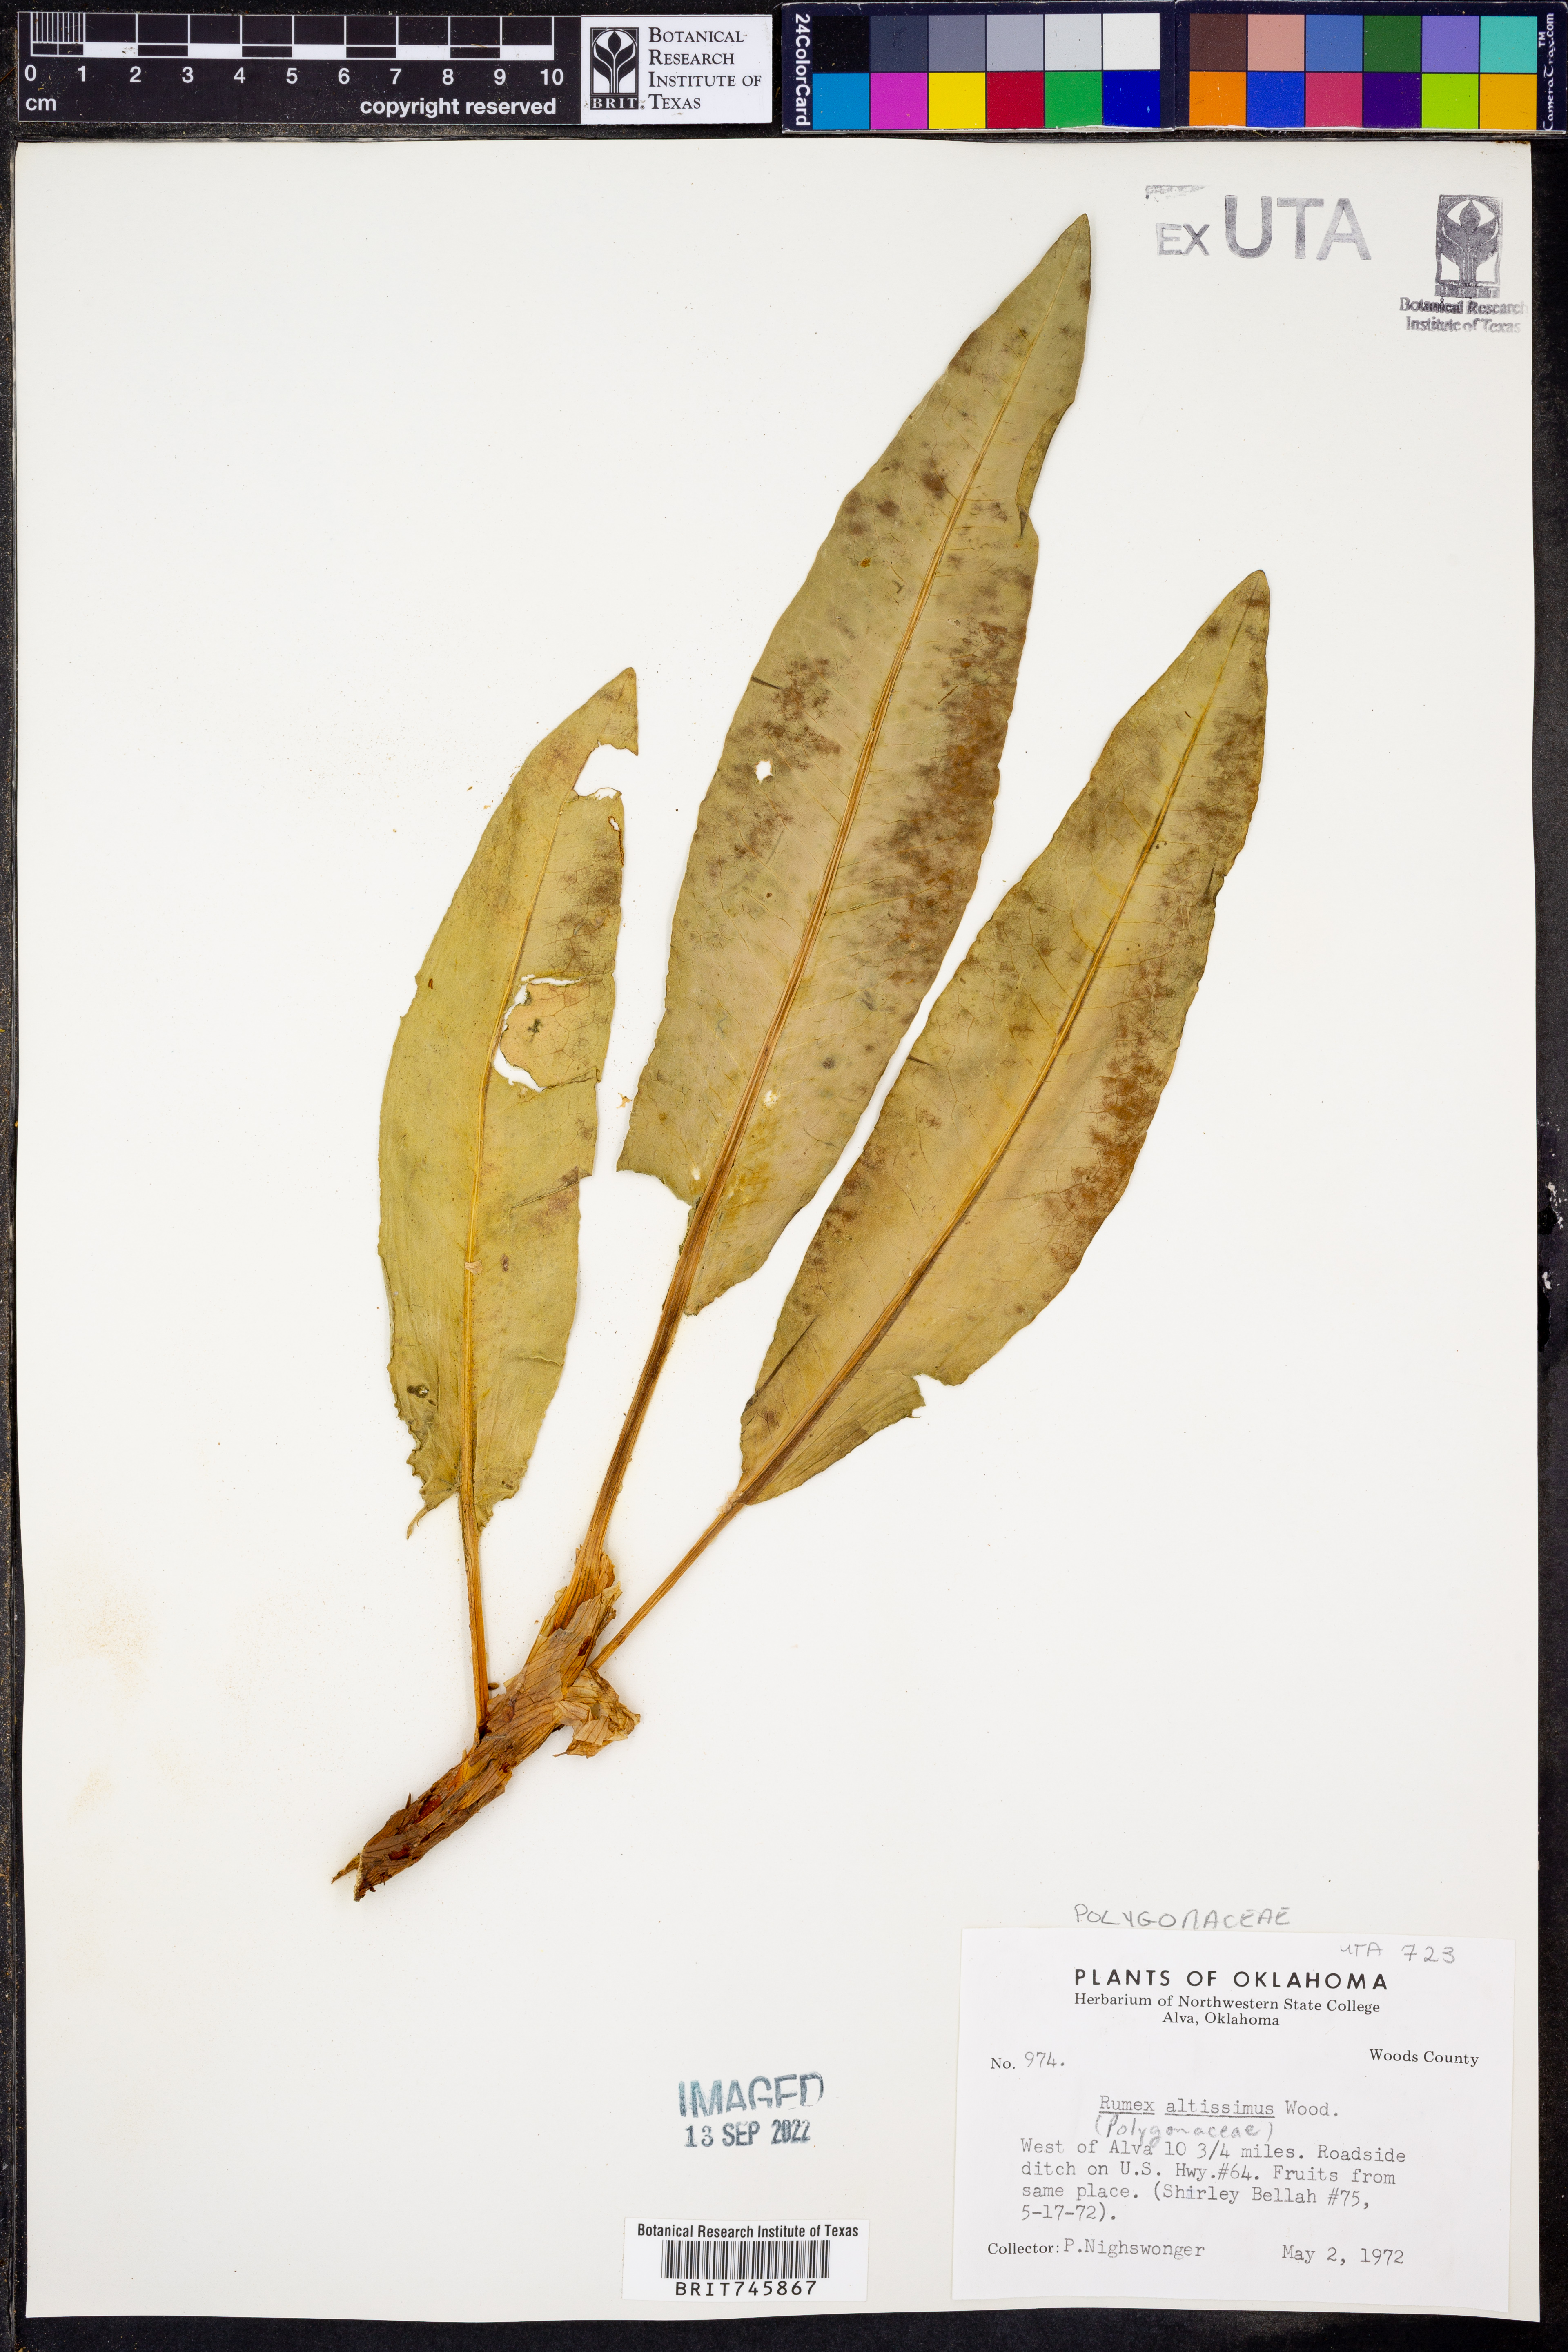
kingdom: Plantae
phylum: Tracheophyta
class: Magnoliopsida
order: Caryophyllales
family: Polygonaceae
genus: Rumex
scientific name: Rumex altissimus
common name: Smooth dock
